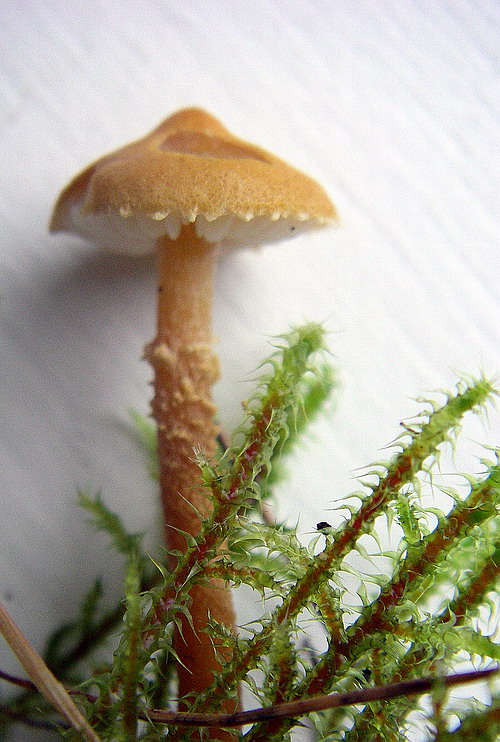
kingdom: Fungi
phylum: Basidiomycota
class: Agaricomycetes
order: Agaricales
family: Tricholomataceae
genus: Cystoderma
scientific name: Cystoderma amianthinum
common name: okkergul grynhat
